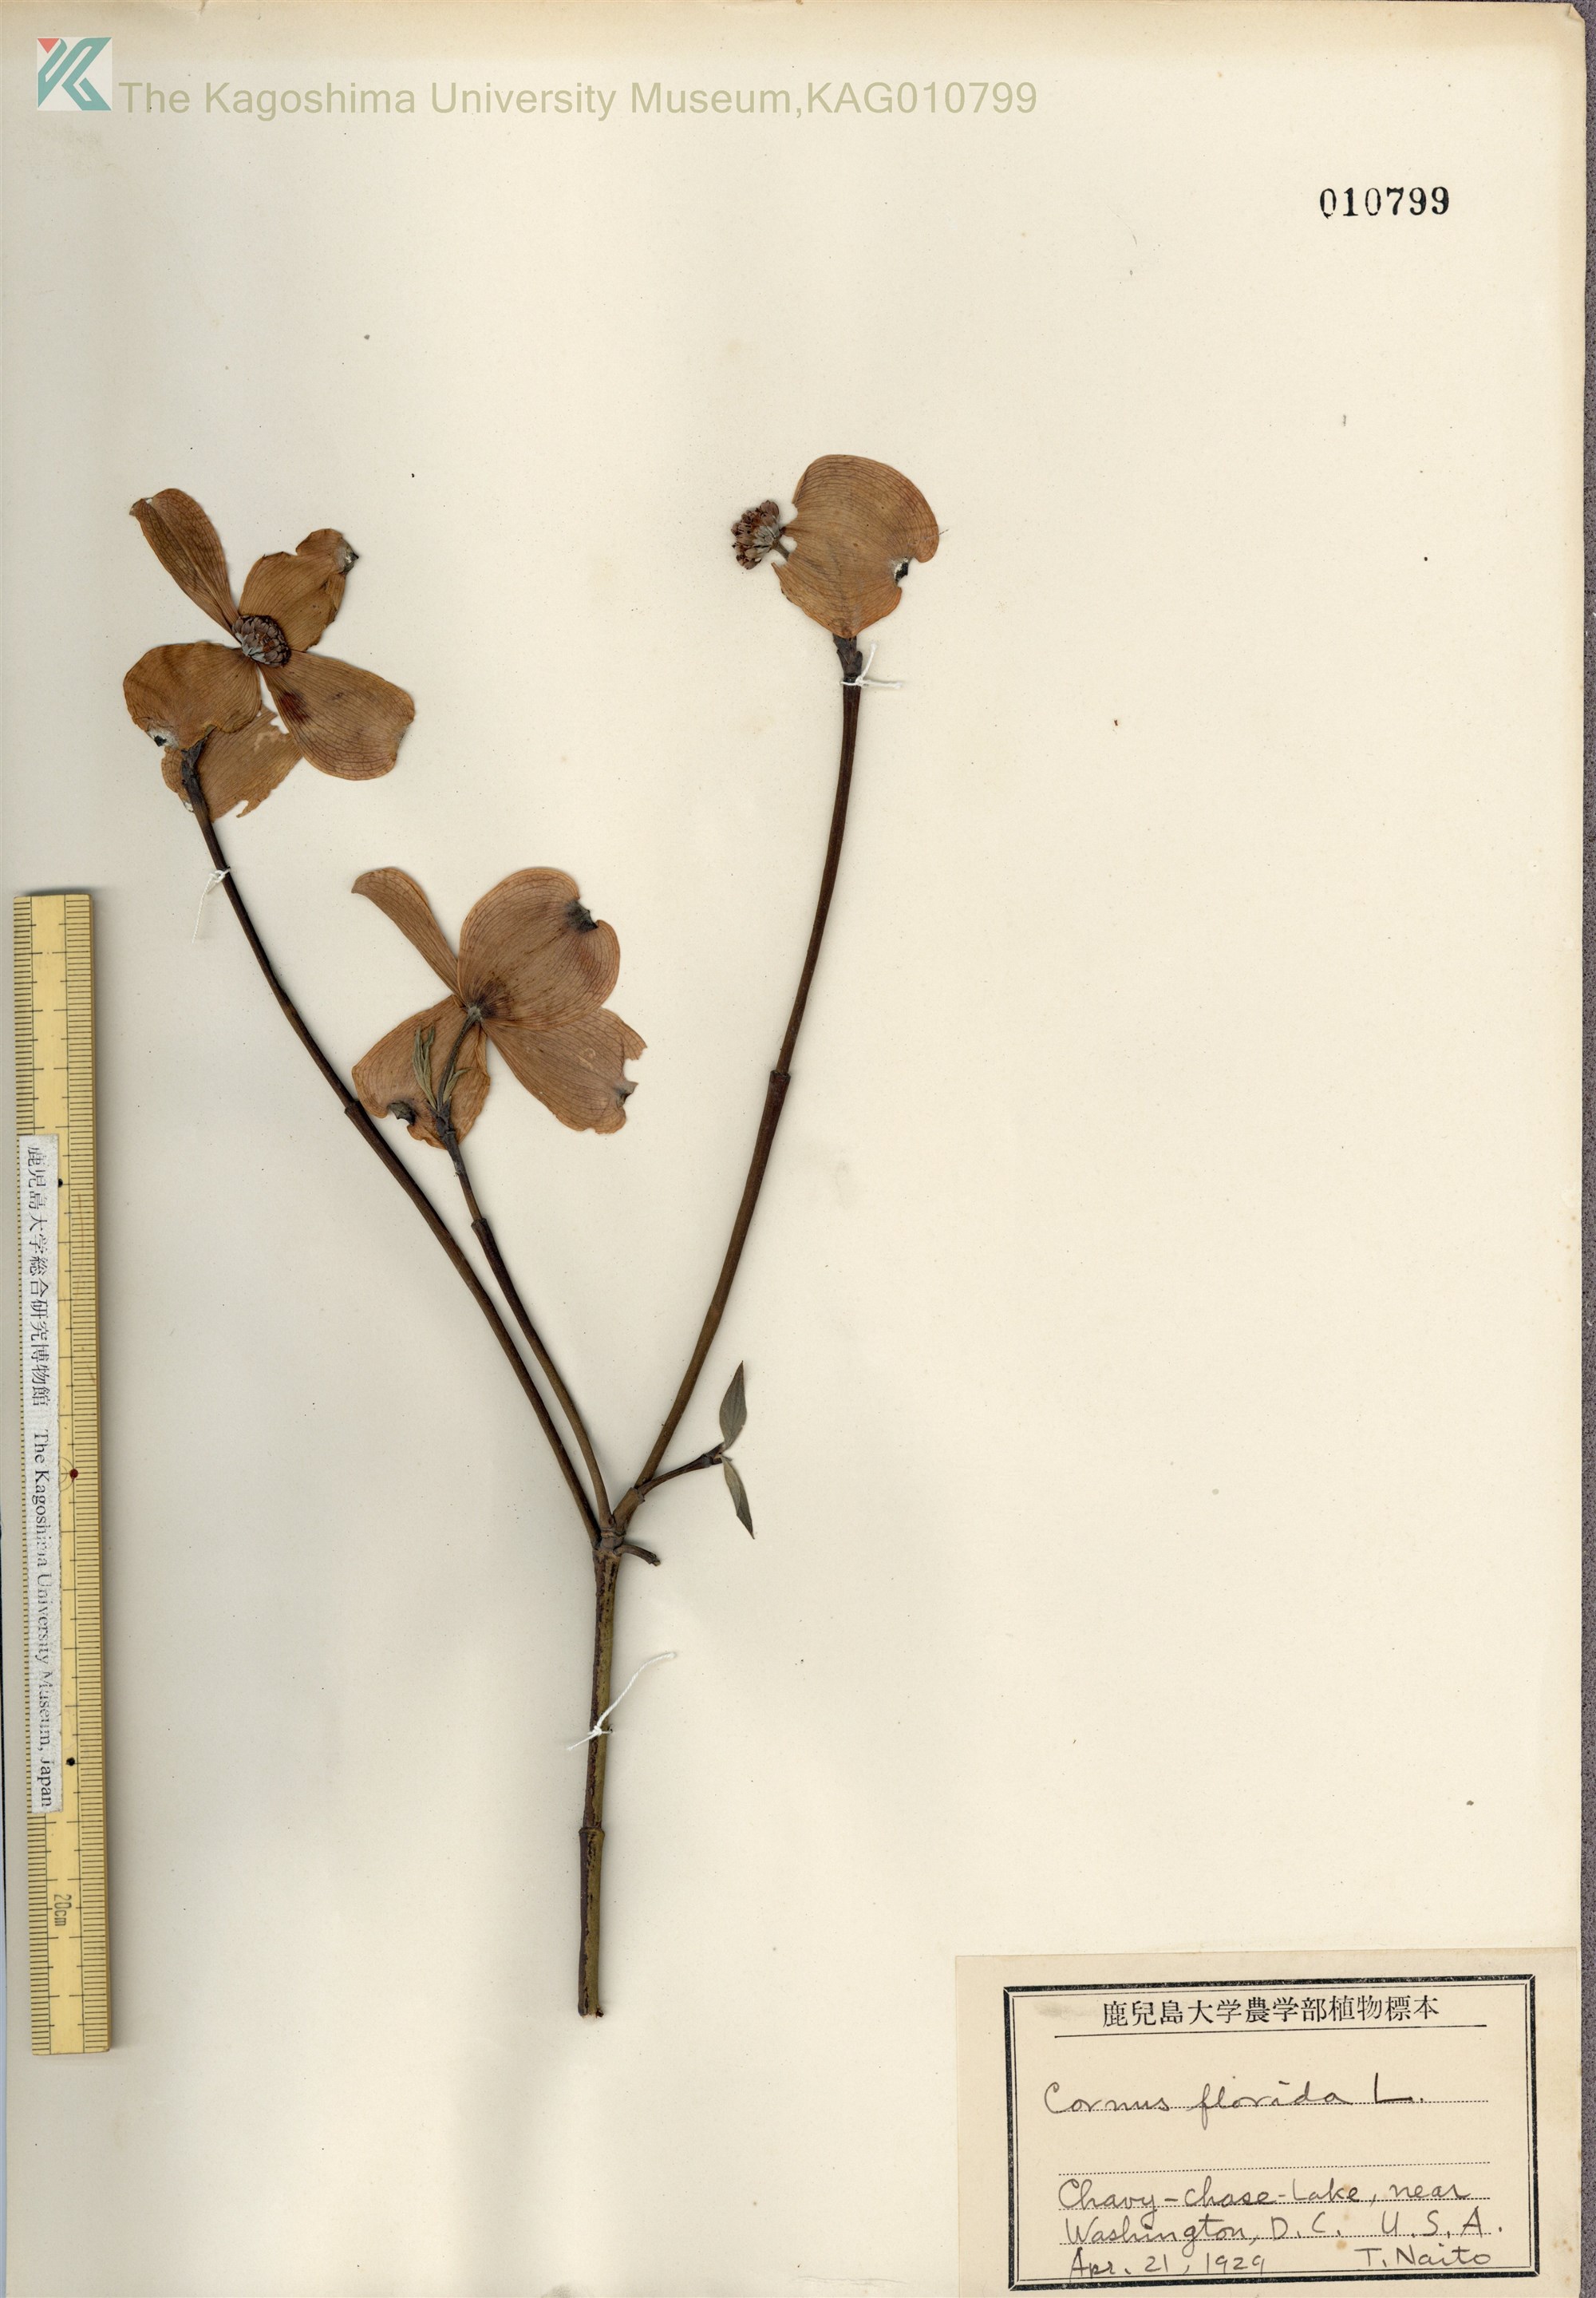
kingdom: Plantae
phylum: Tracheophyta
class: Magnoliopsida
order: Cornales
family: Cornaceae
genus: Cornus
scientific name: Cornus florida
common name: Flowering dogwood
